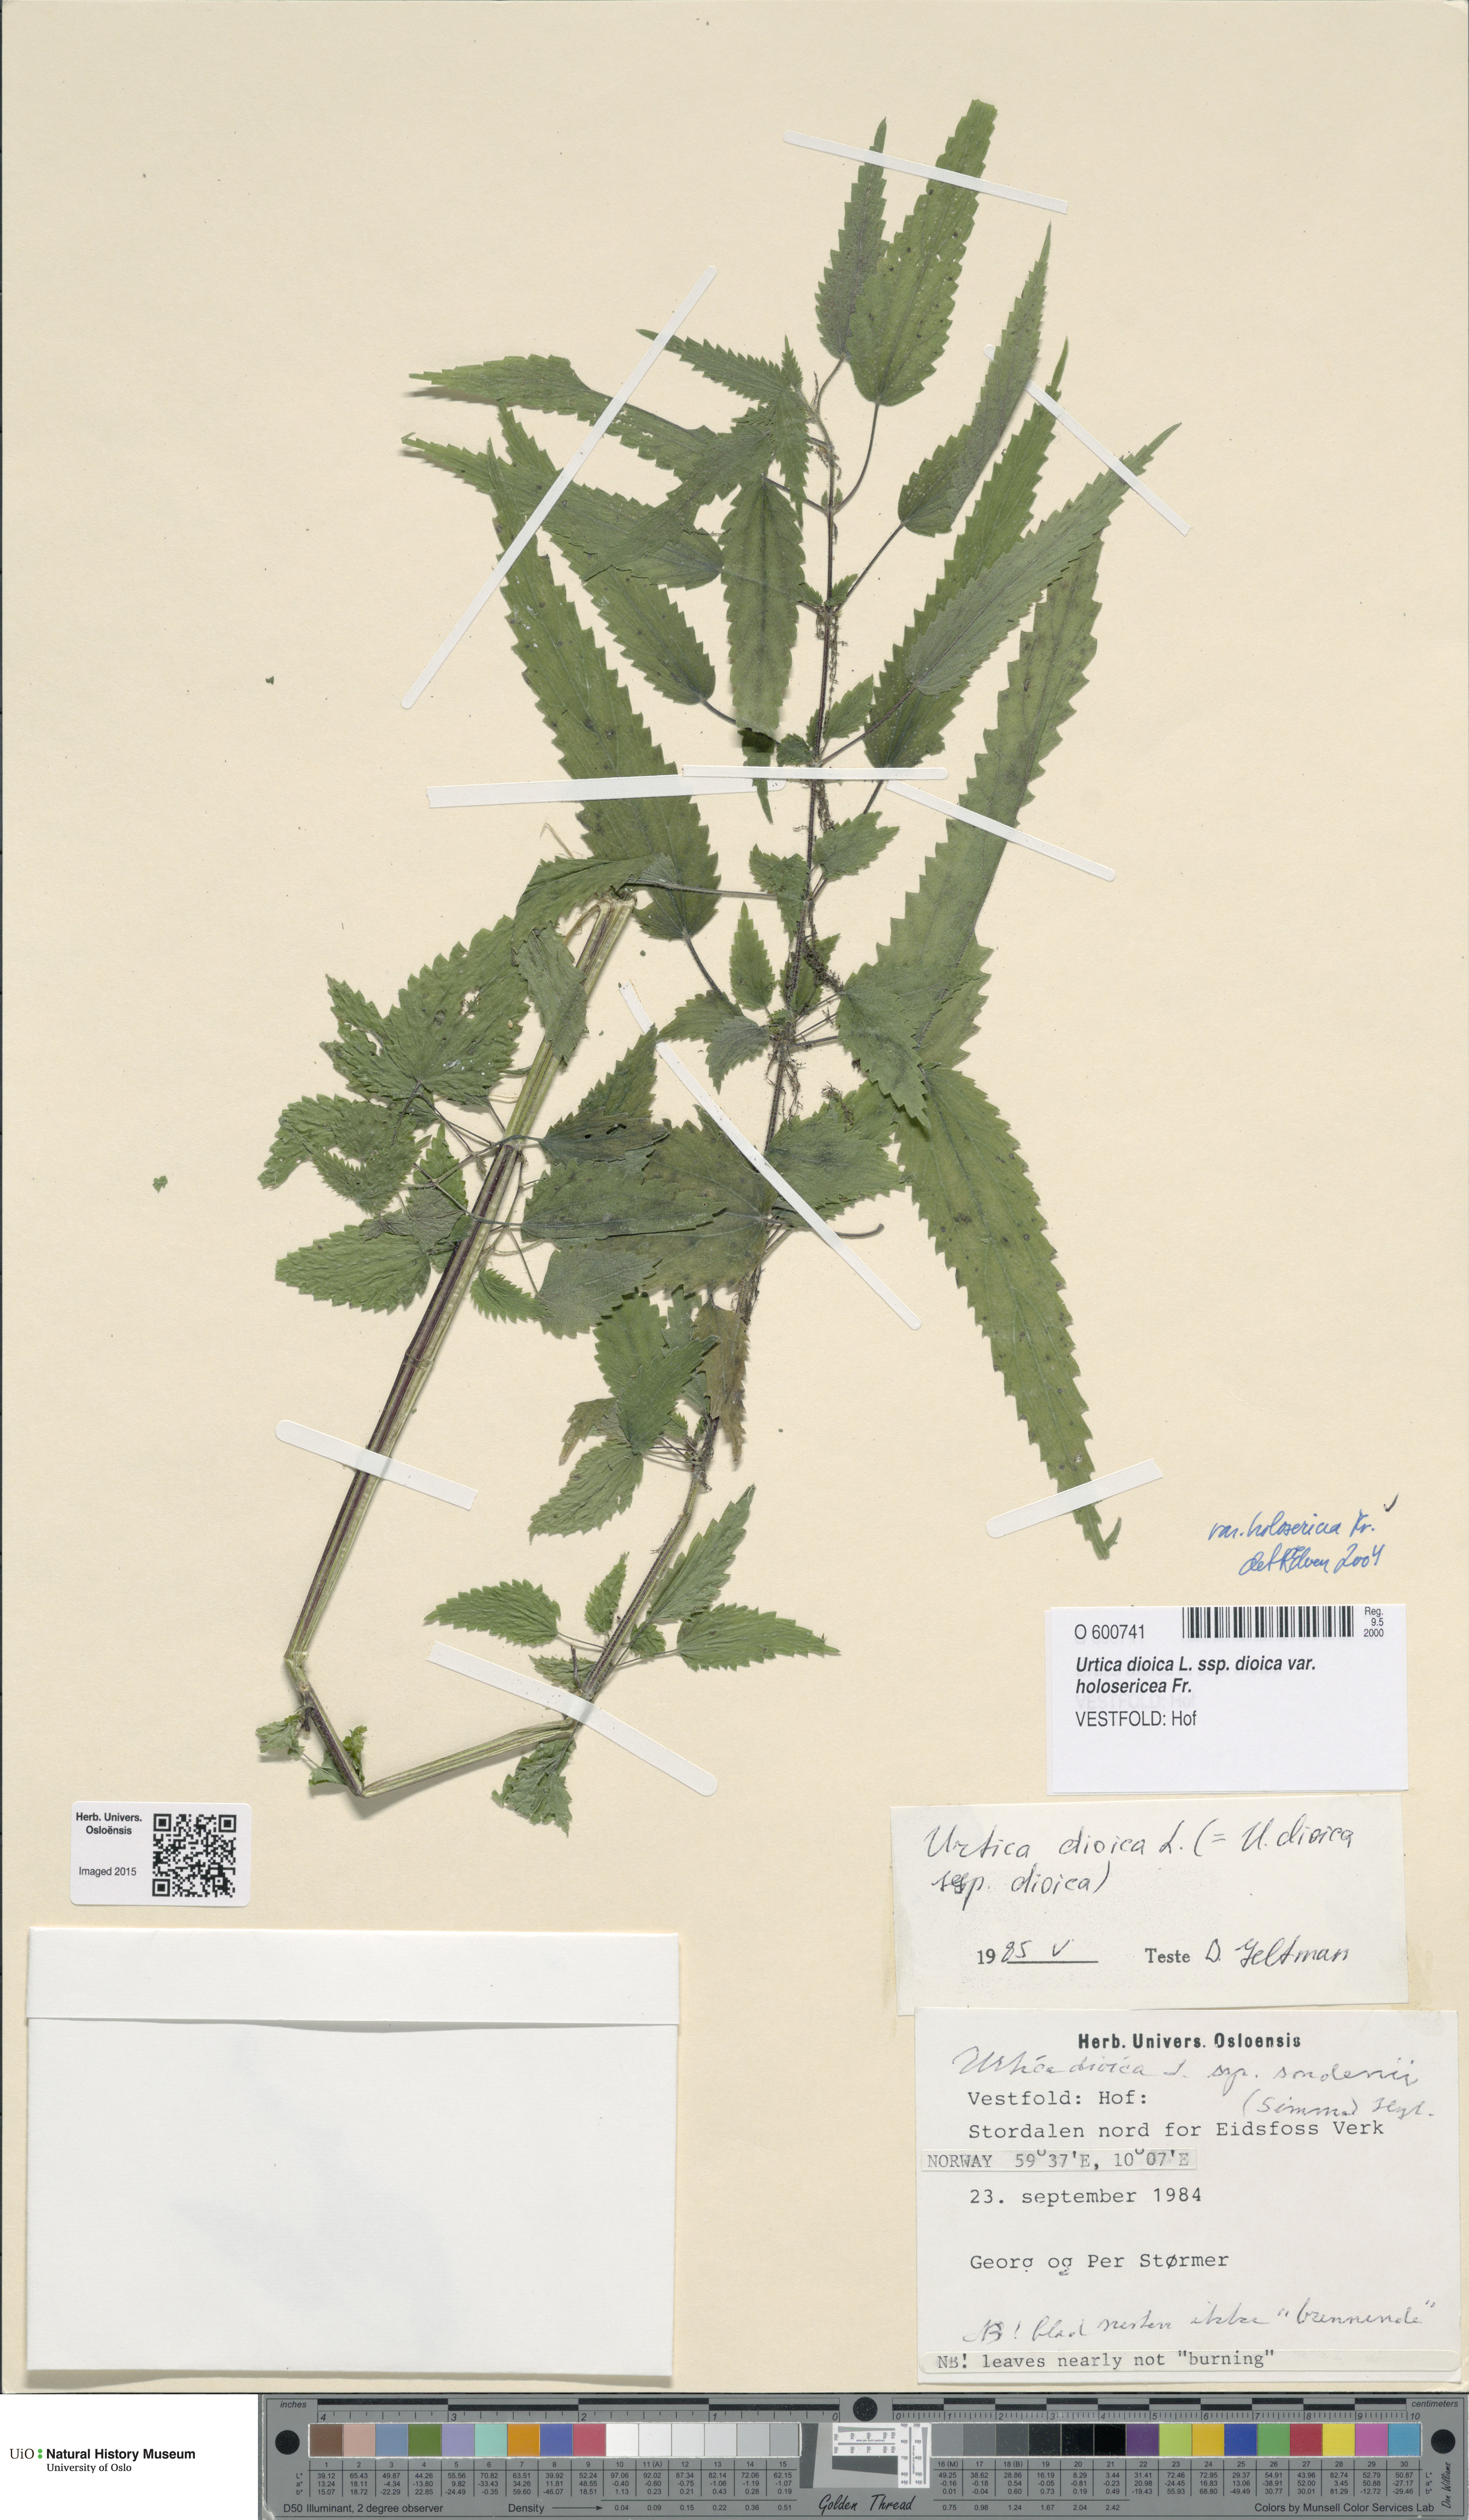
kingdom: Plantae
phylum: Tracheophyta
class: Magnoliopsida
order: Rosales
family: Urticaceae
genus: Urtica
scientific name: Urtica dioica
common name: Common nettle
